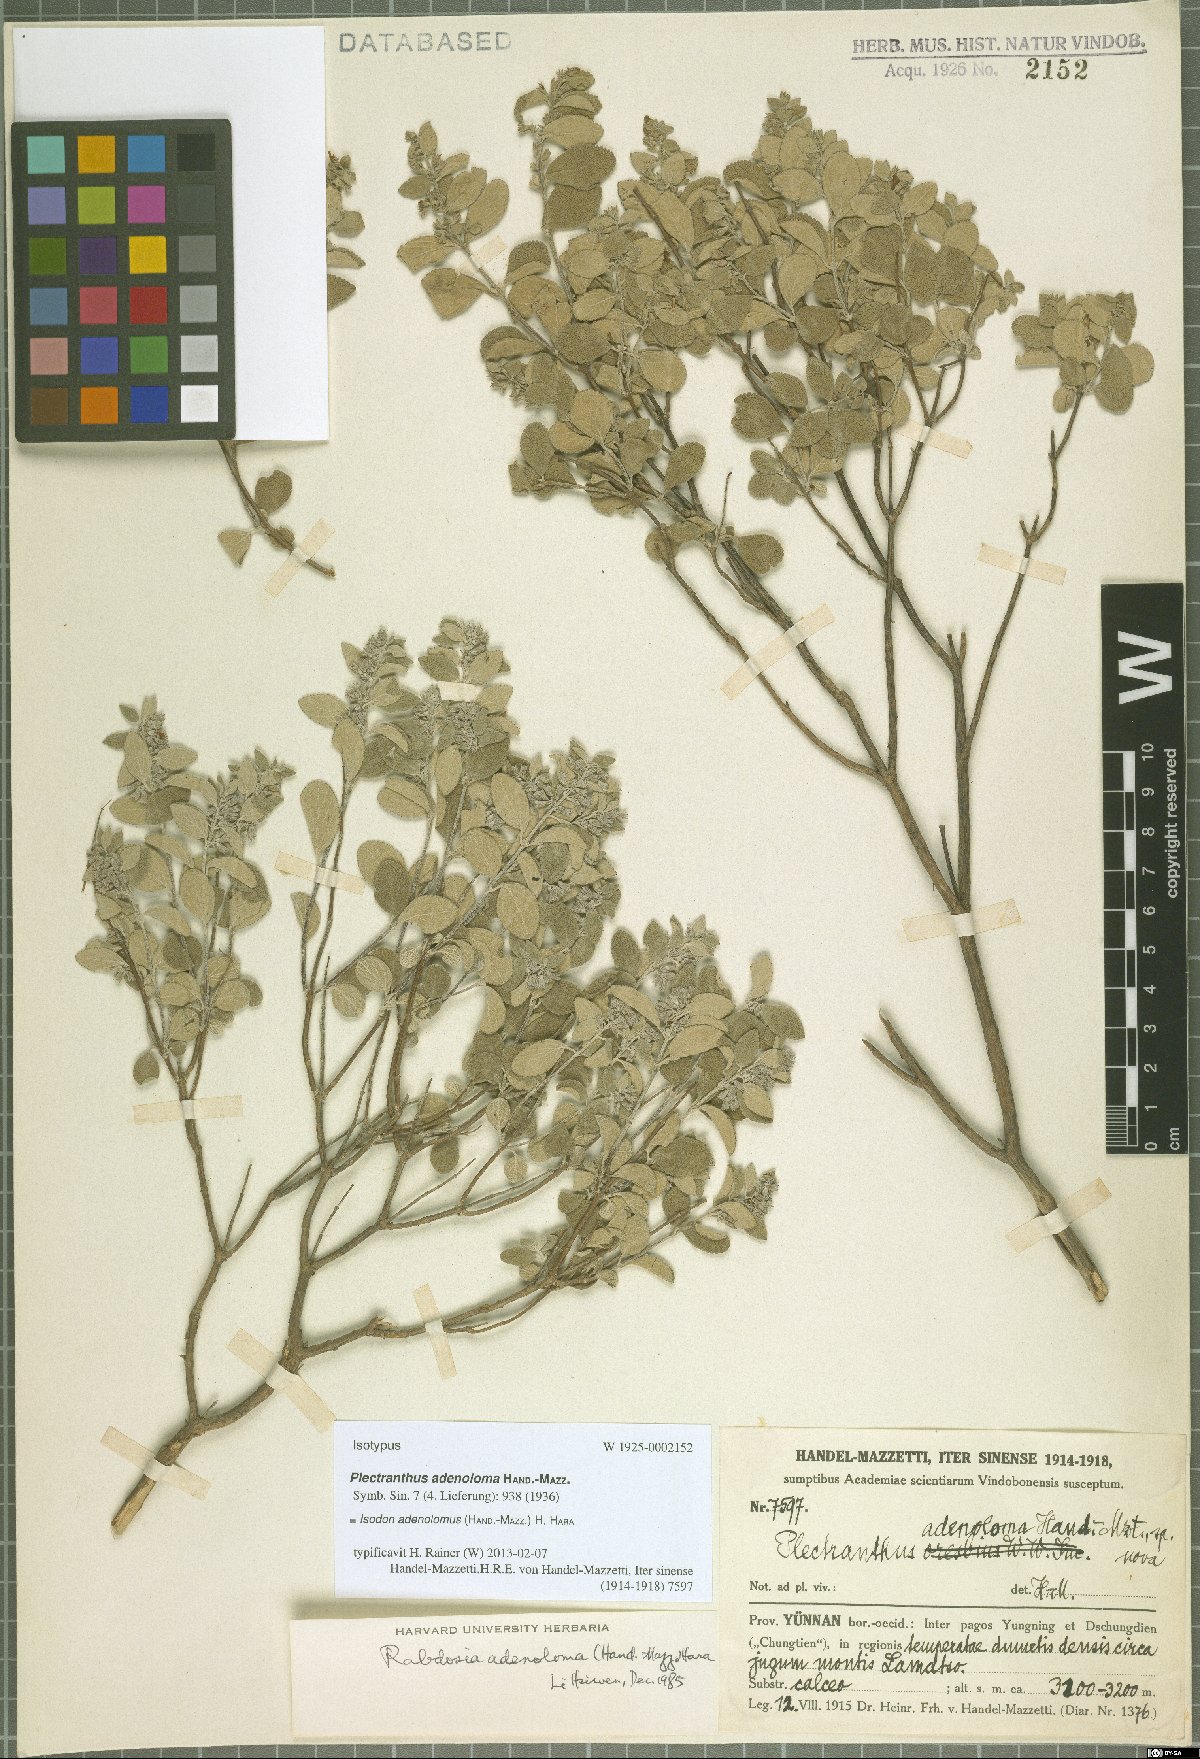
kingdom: Plantae
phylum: Tracheophyta
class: Magnoliopsida
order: Lamiales
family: Lamiaceae
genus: Isodon
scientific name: Isodon adenolomus
